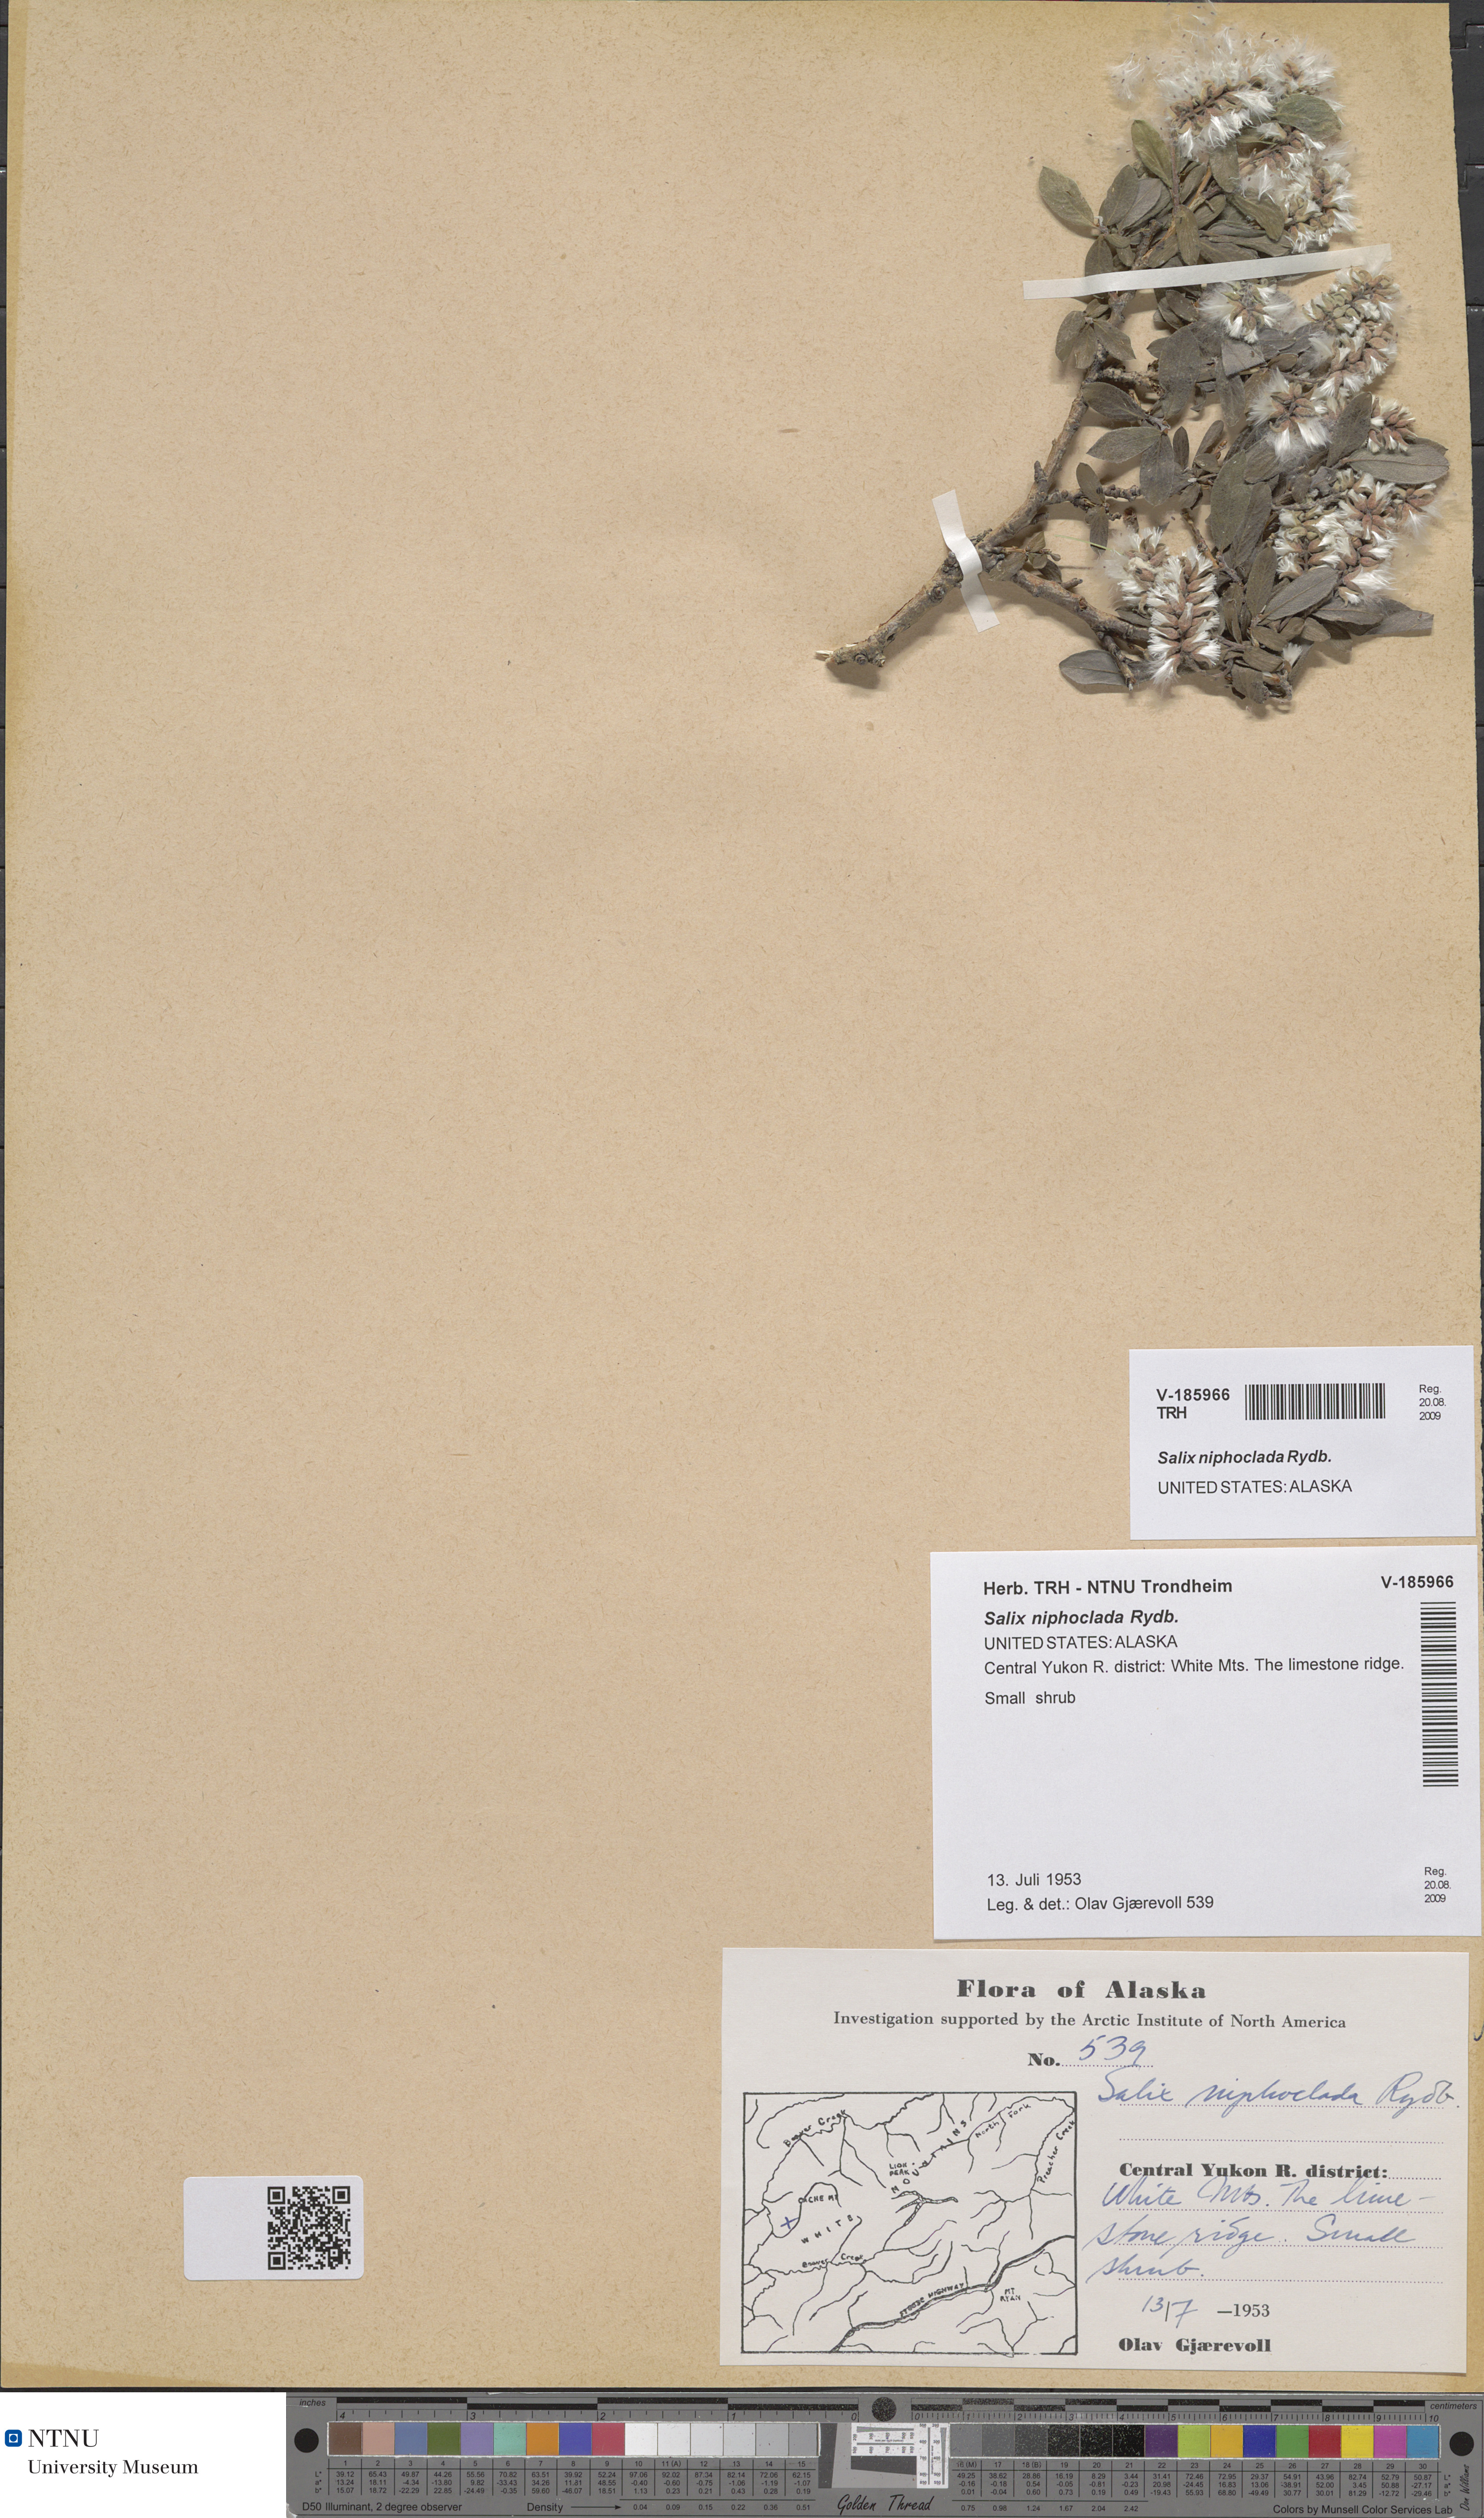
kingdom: Plantae
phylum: Tracheophyta
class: Magnoliopsida
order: Malpighiales
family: Salicaceae
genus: Salix
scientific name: Salix niphoclada
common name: Barren-ground willow
